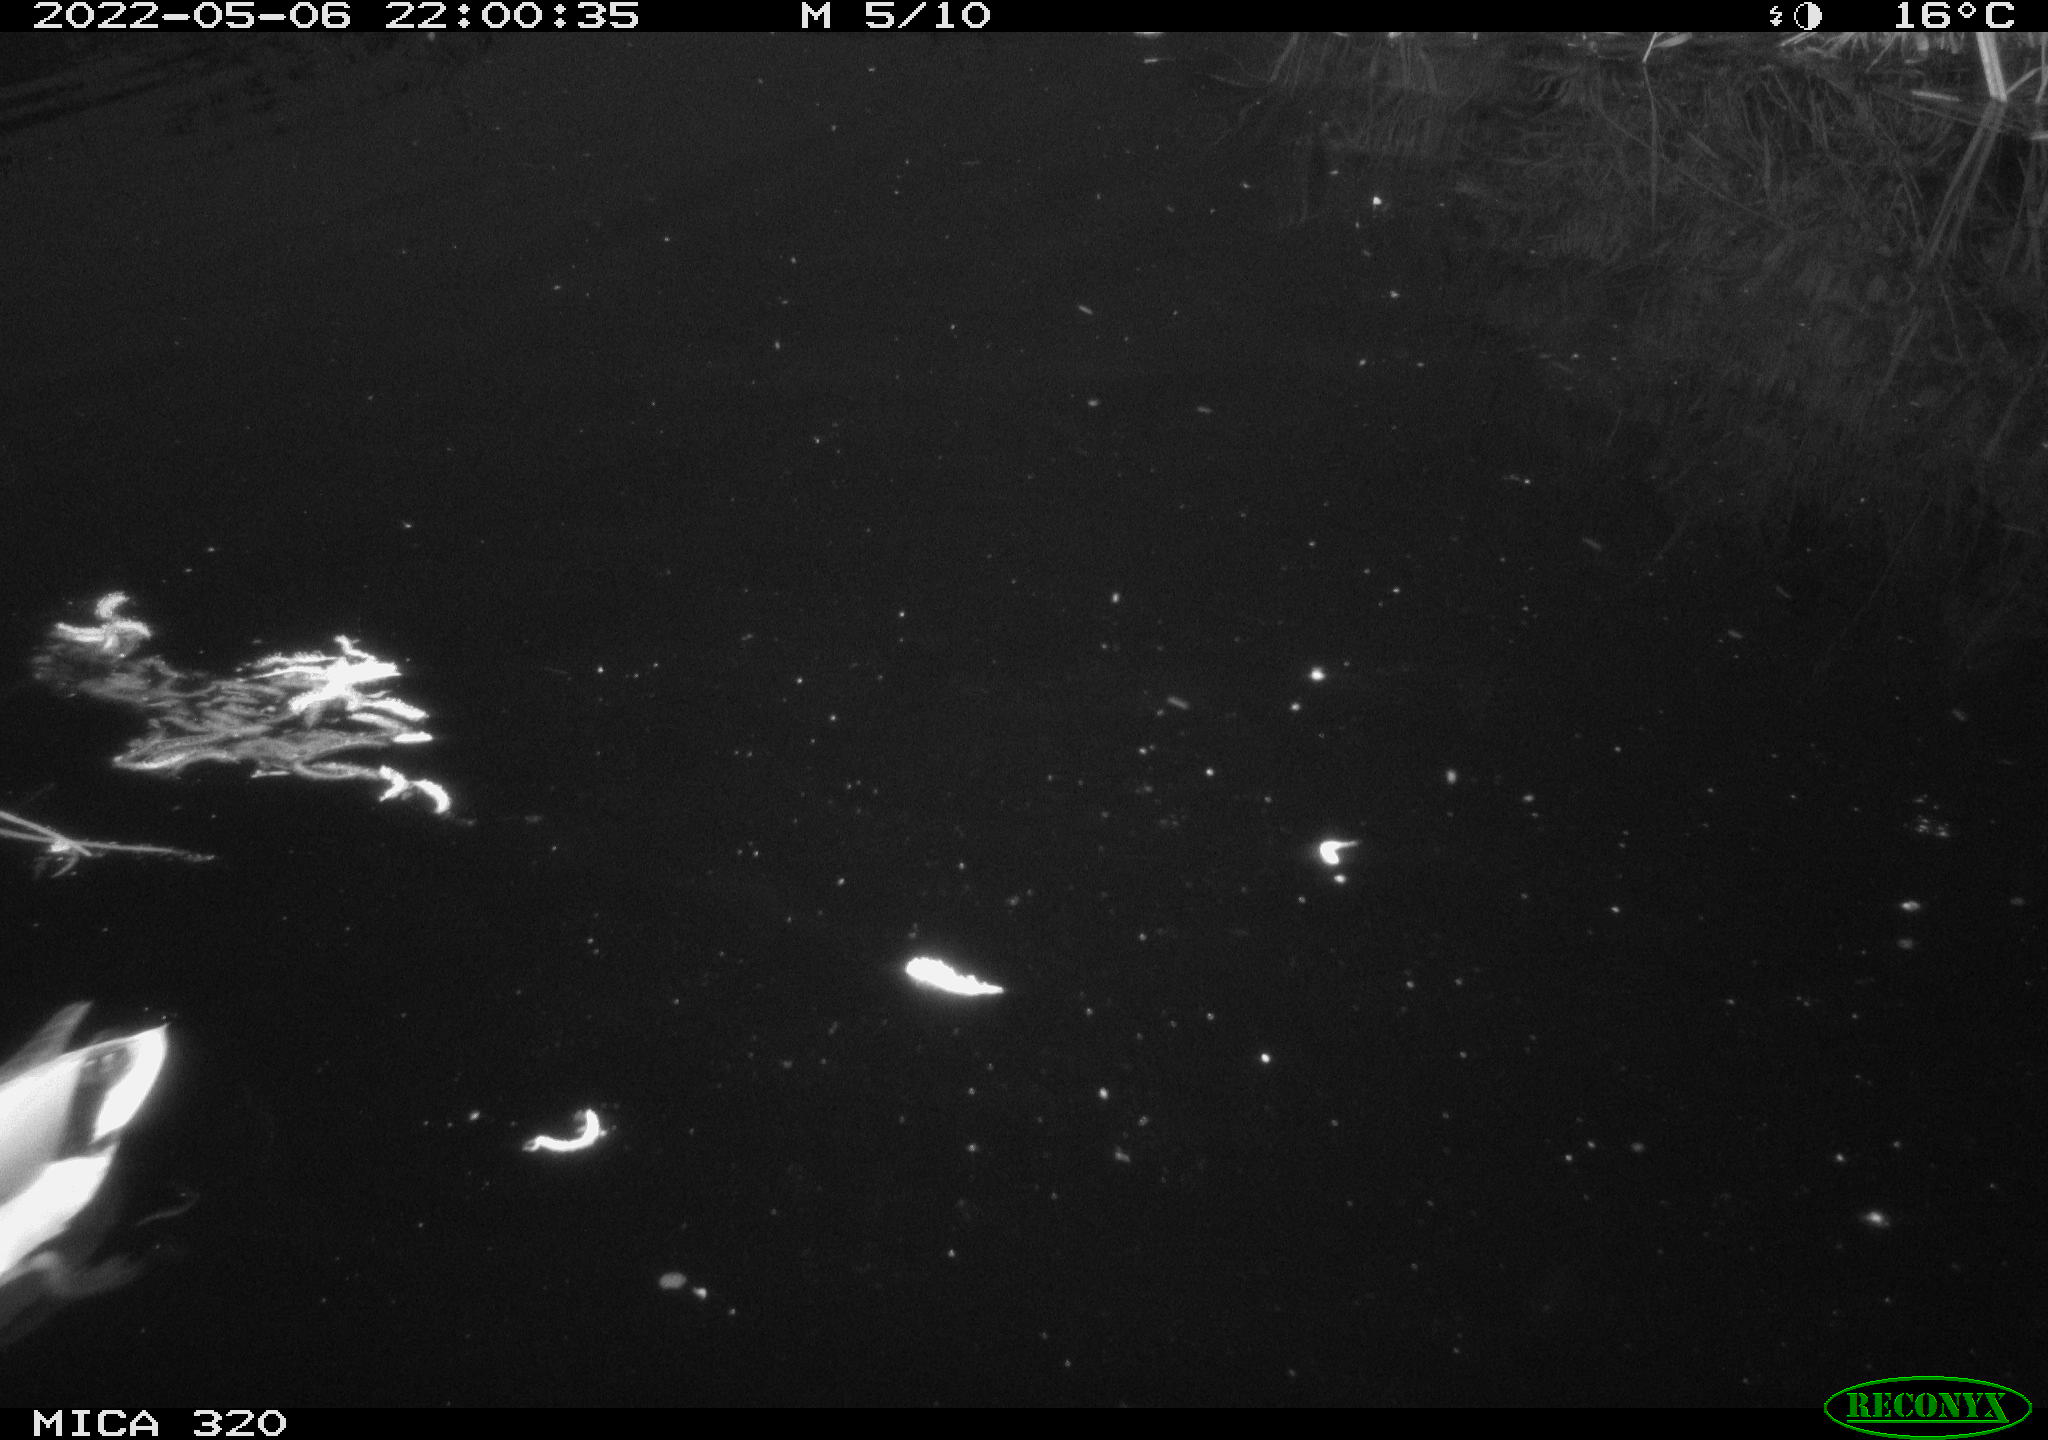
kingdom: Animalia
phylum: Chordata
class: Aves
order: Anseriformes
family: Anatidae
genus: Anas
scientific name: Anas platyrhynchos
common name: Mallard
